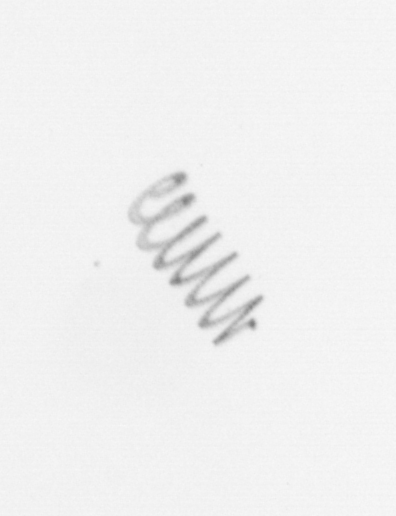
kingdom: Chromista
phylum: Ochrophyta
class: Bacillariophyceae
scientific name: Bacillariophyceae
